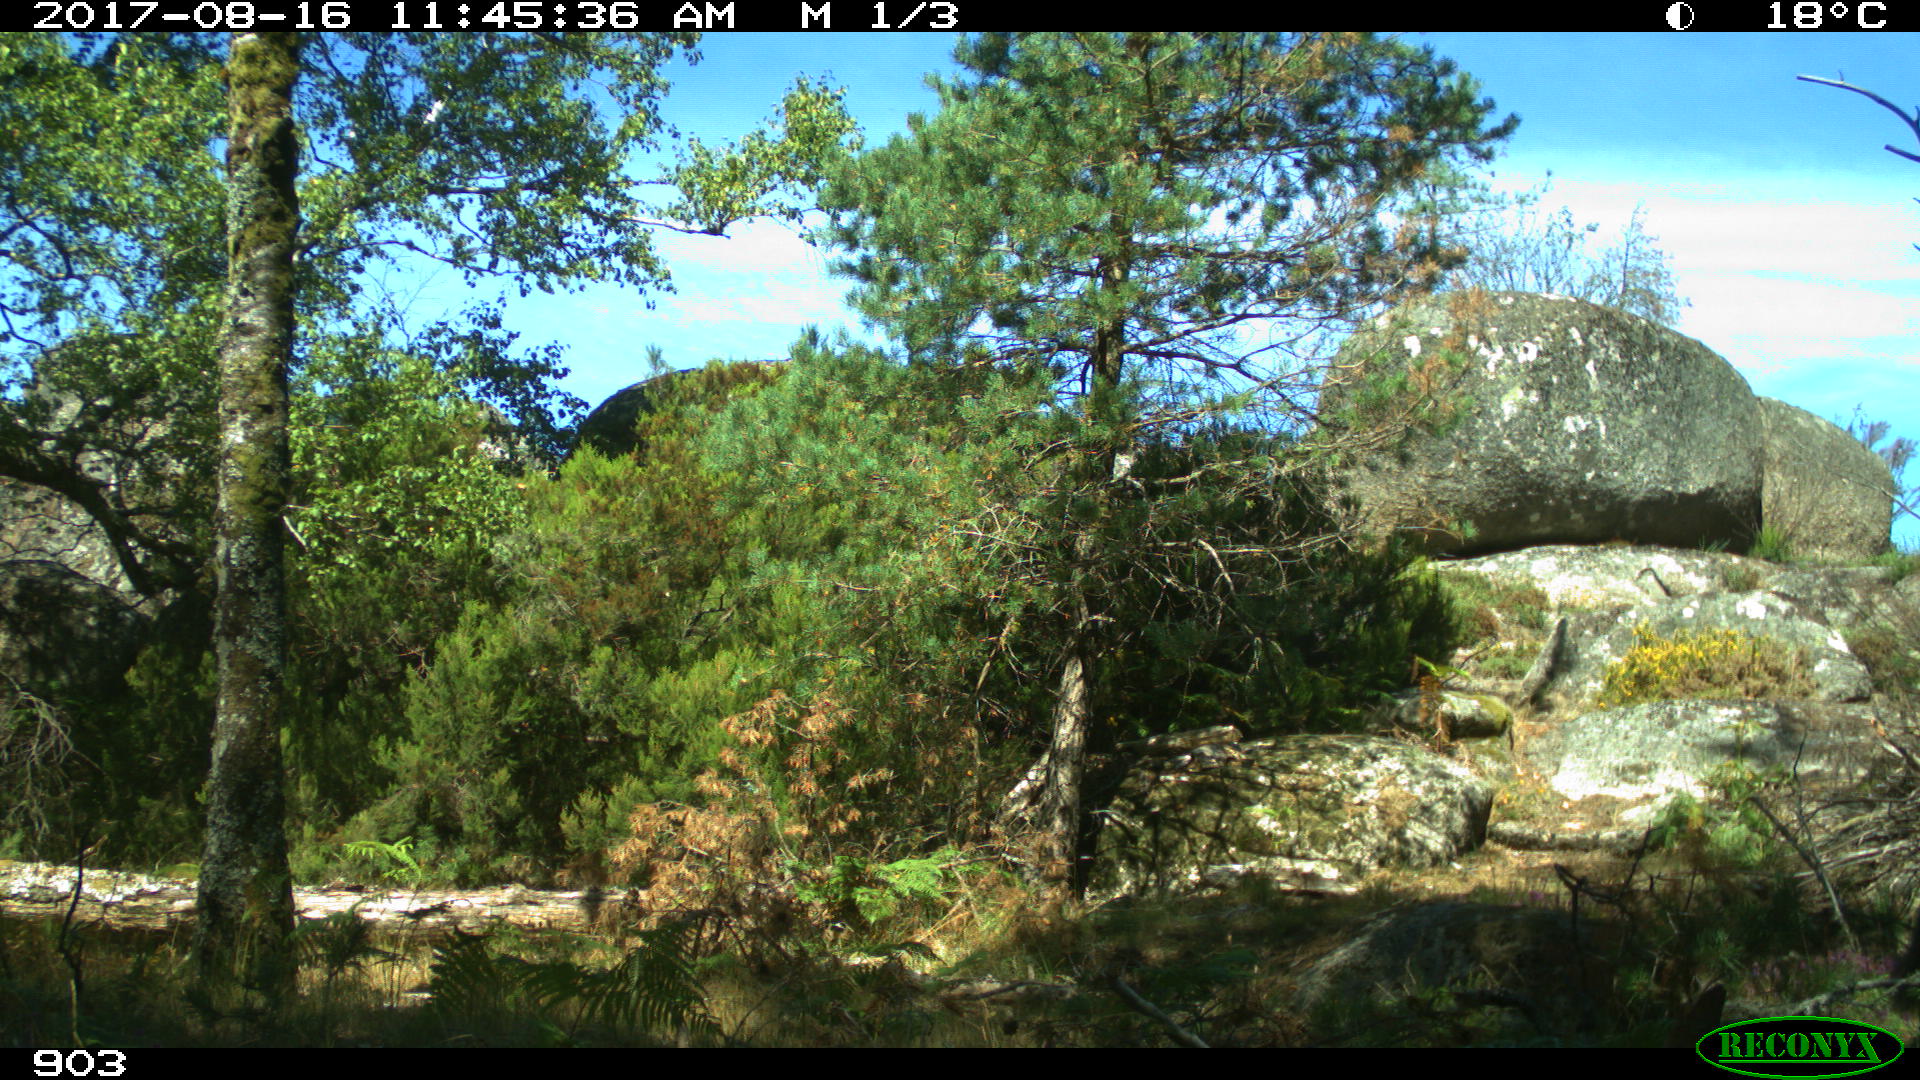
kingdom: Animalia
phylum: Chordata
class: Mammalia
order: Perissodactyla
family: Equidae
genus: Equus
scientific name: Equus caballus
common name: Horse
